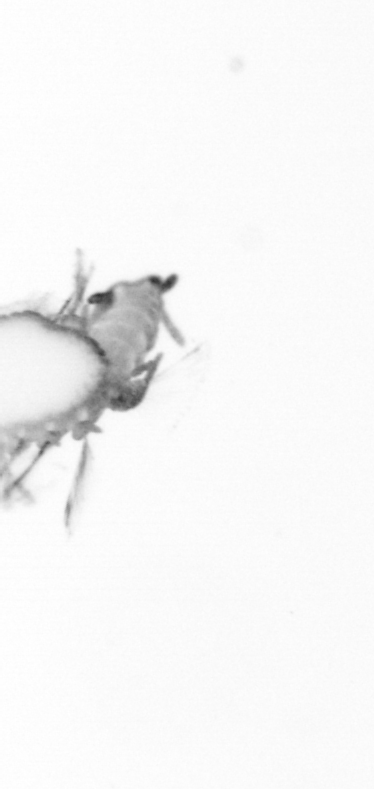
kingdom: Animalia
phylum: Annelida
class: Polychaeta
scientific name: Polychaeta
